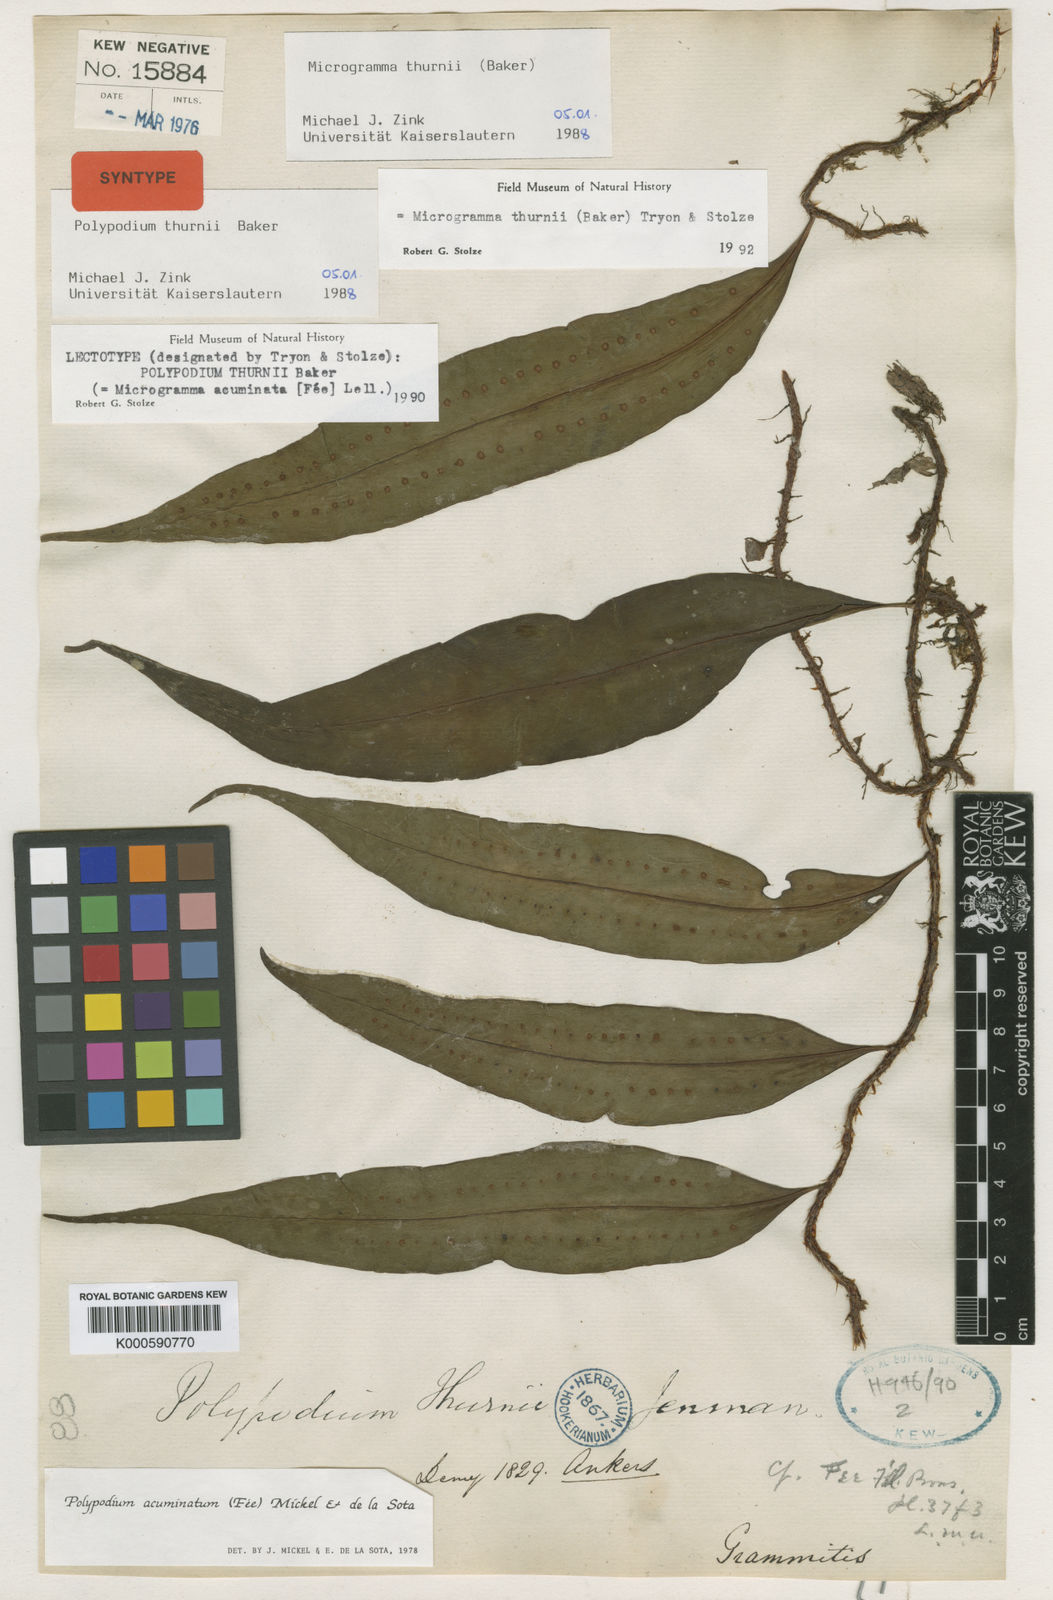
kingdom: Plantae
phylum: Tracheophyta
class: Polypodiopsida
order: Polypodiales
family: Polypodiaceae
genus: Microgramma
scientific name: Microgramma thurnii
